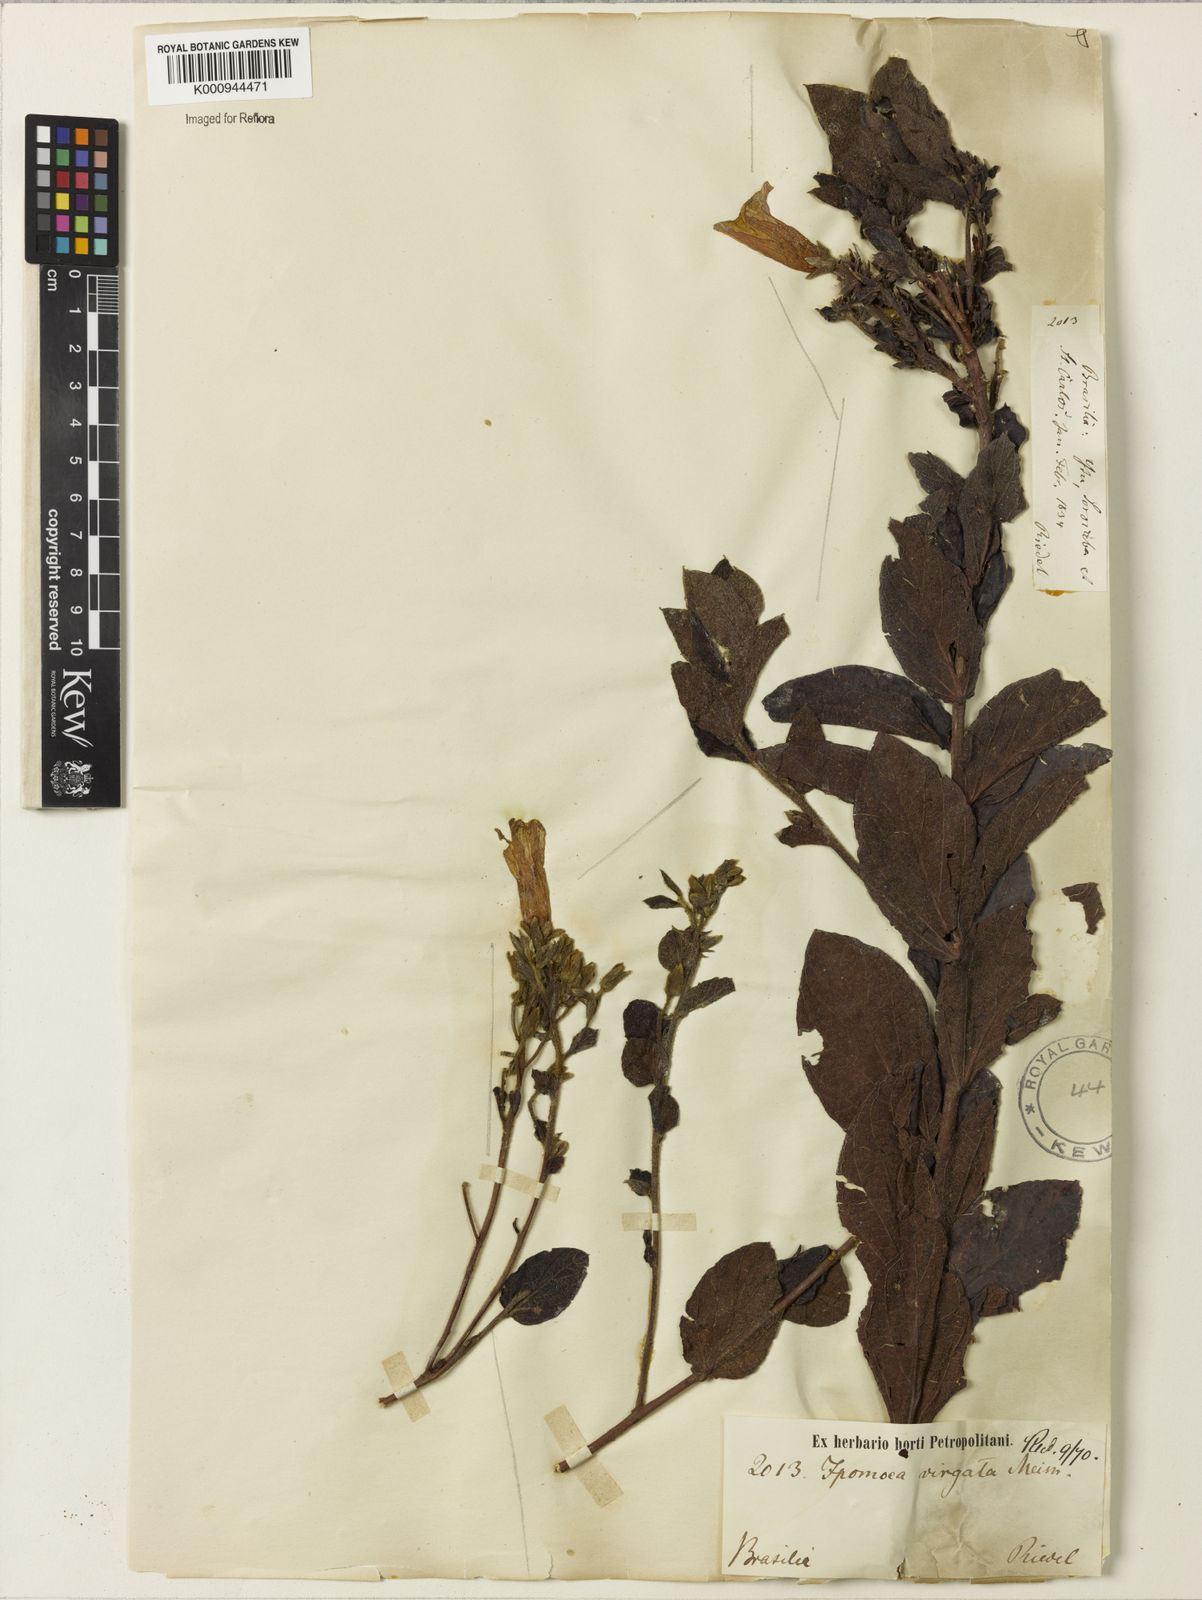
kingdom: Plantae
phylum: Tracheophyta
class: Magnoliopsida
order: Solanales
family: Convolvulaceae
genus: Ipomoea
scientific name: Ipomoea virgata
